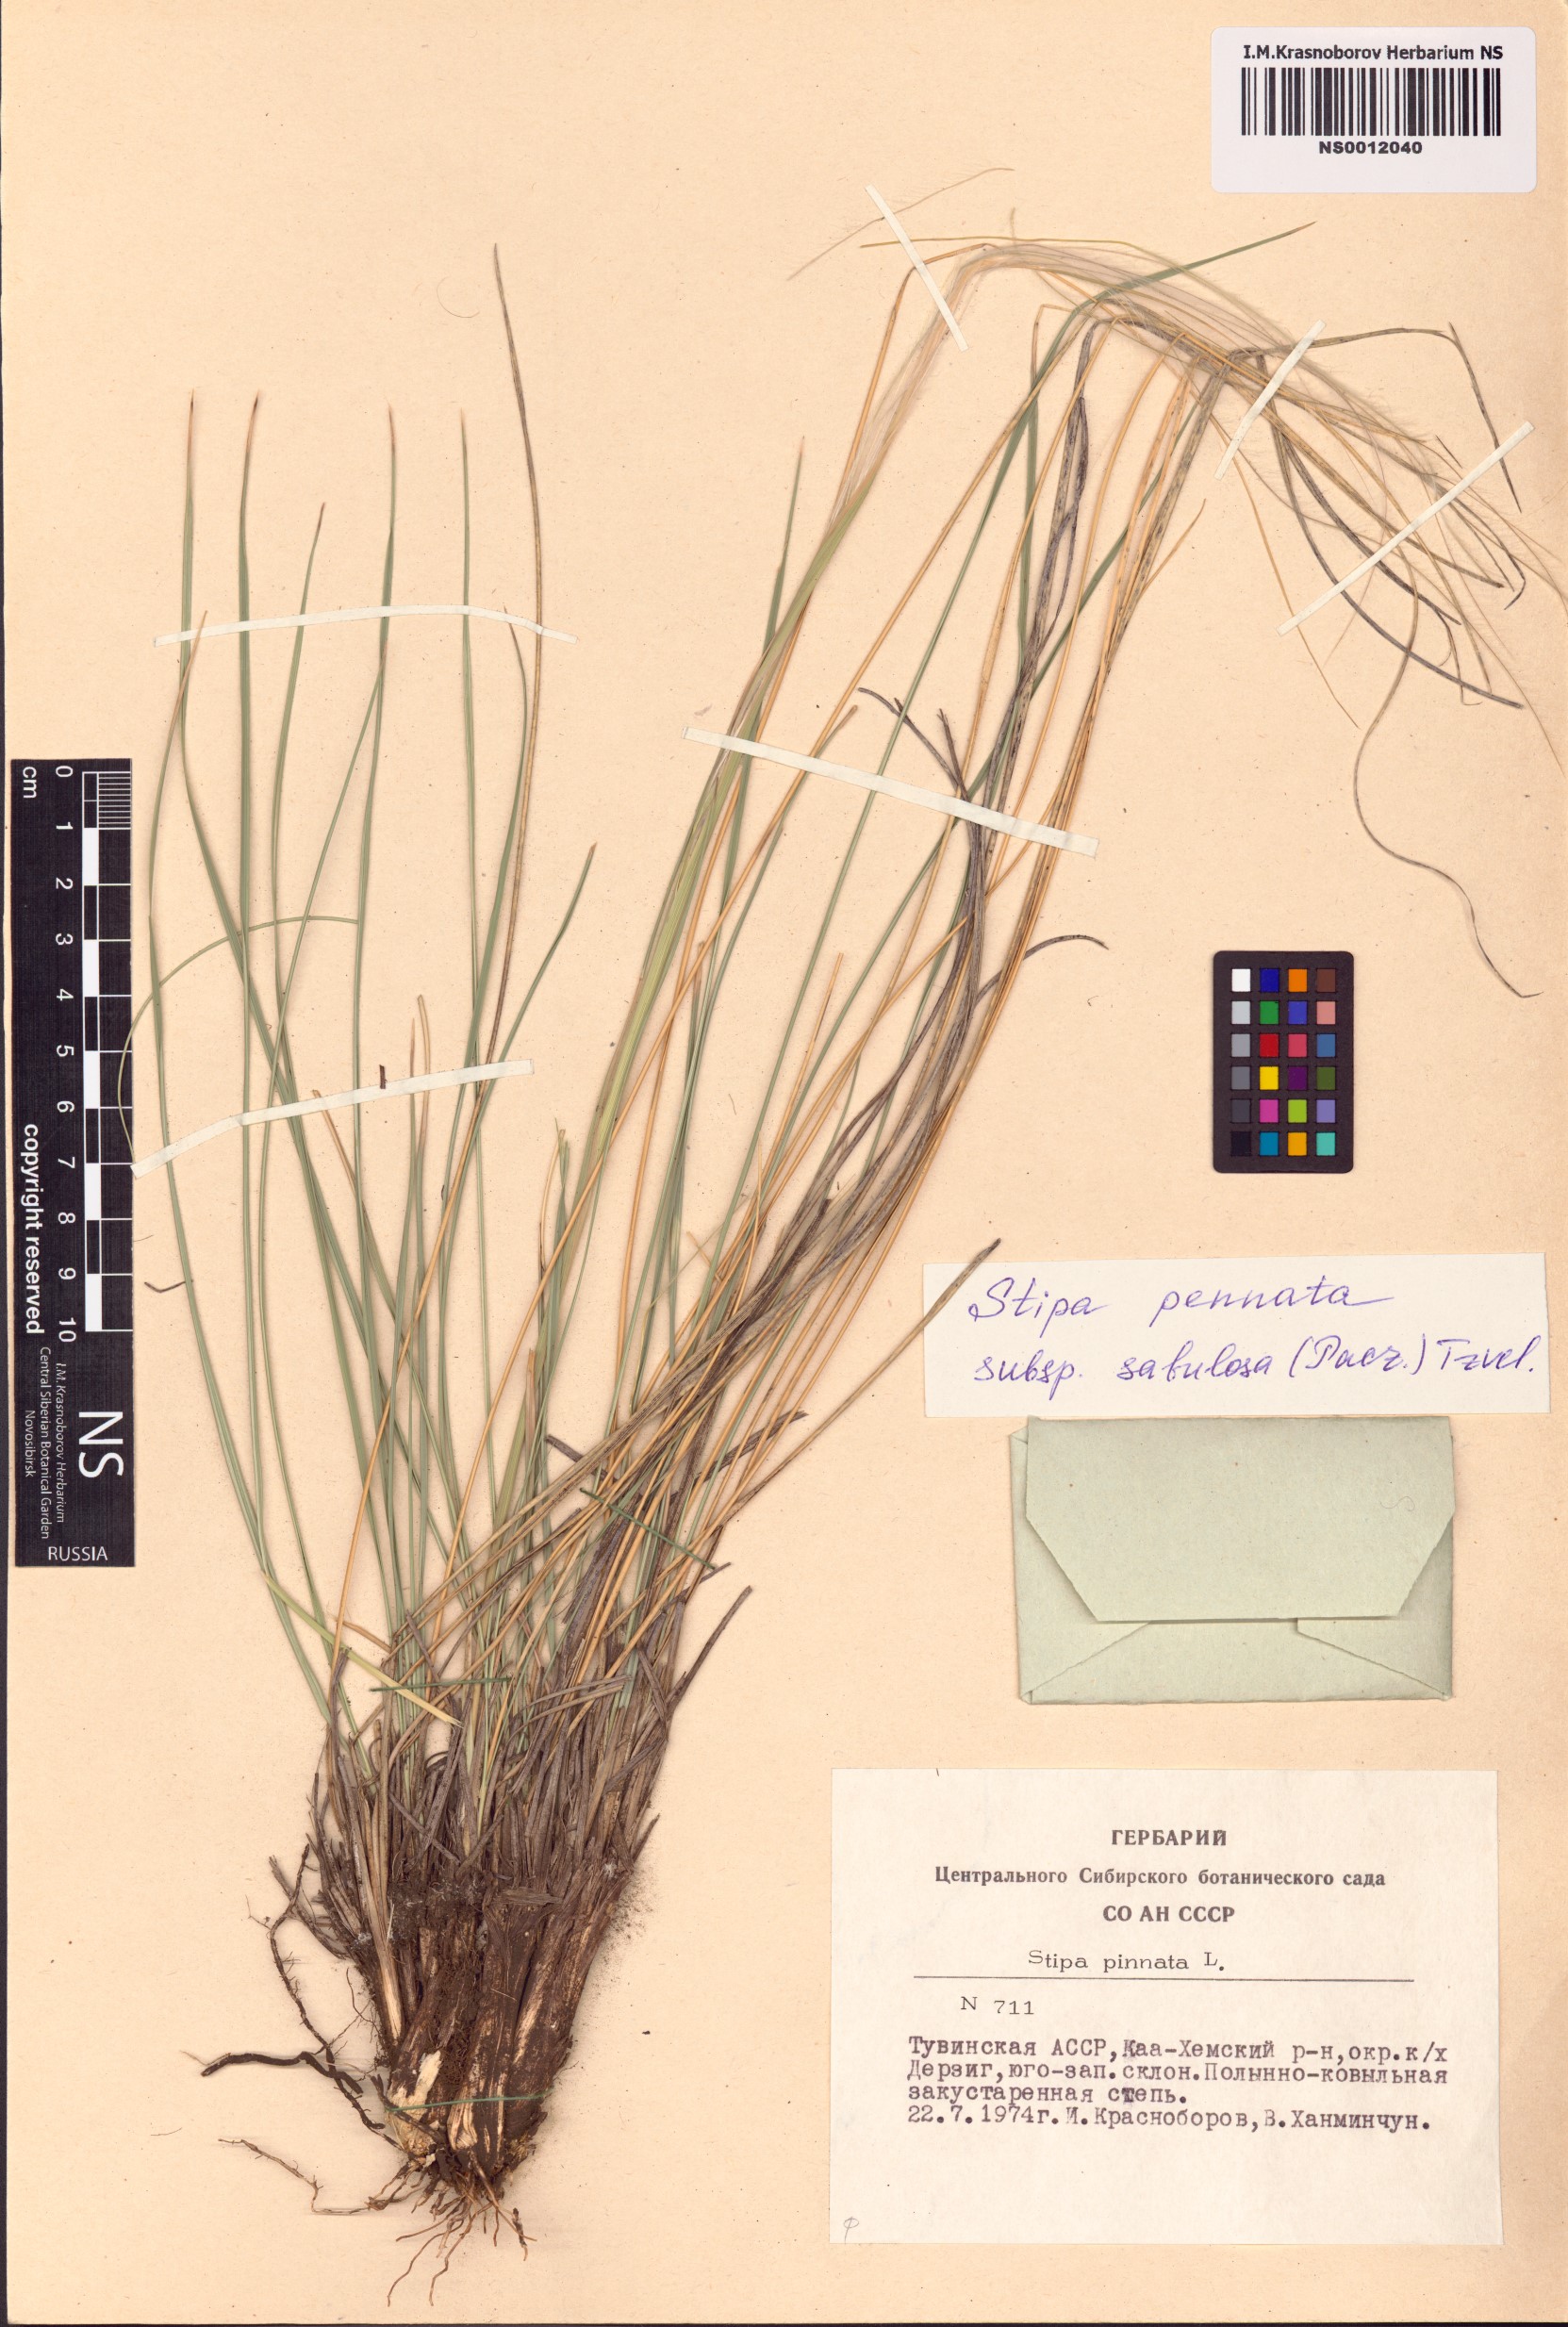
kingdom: Plantae
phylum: Tracheophyta
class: Liliopsida
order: Poales
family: Poaceae
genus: Stipa
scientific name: Stipa borysthenica
